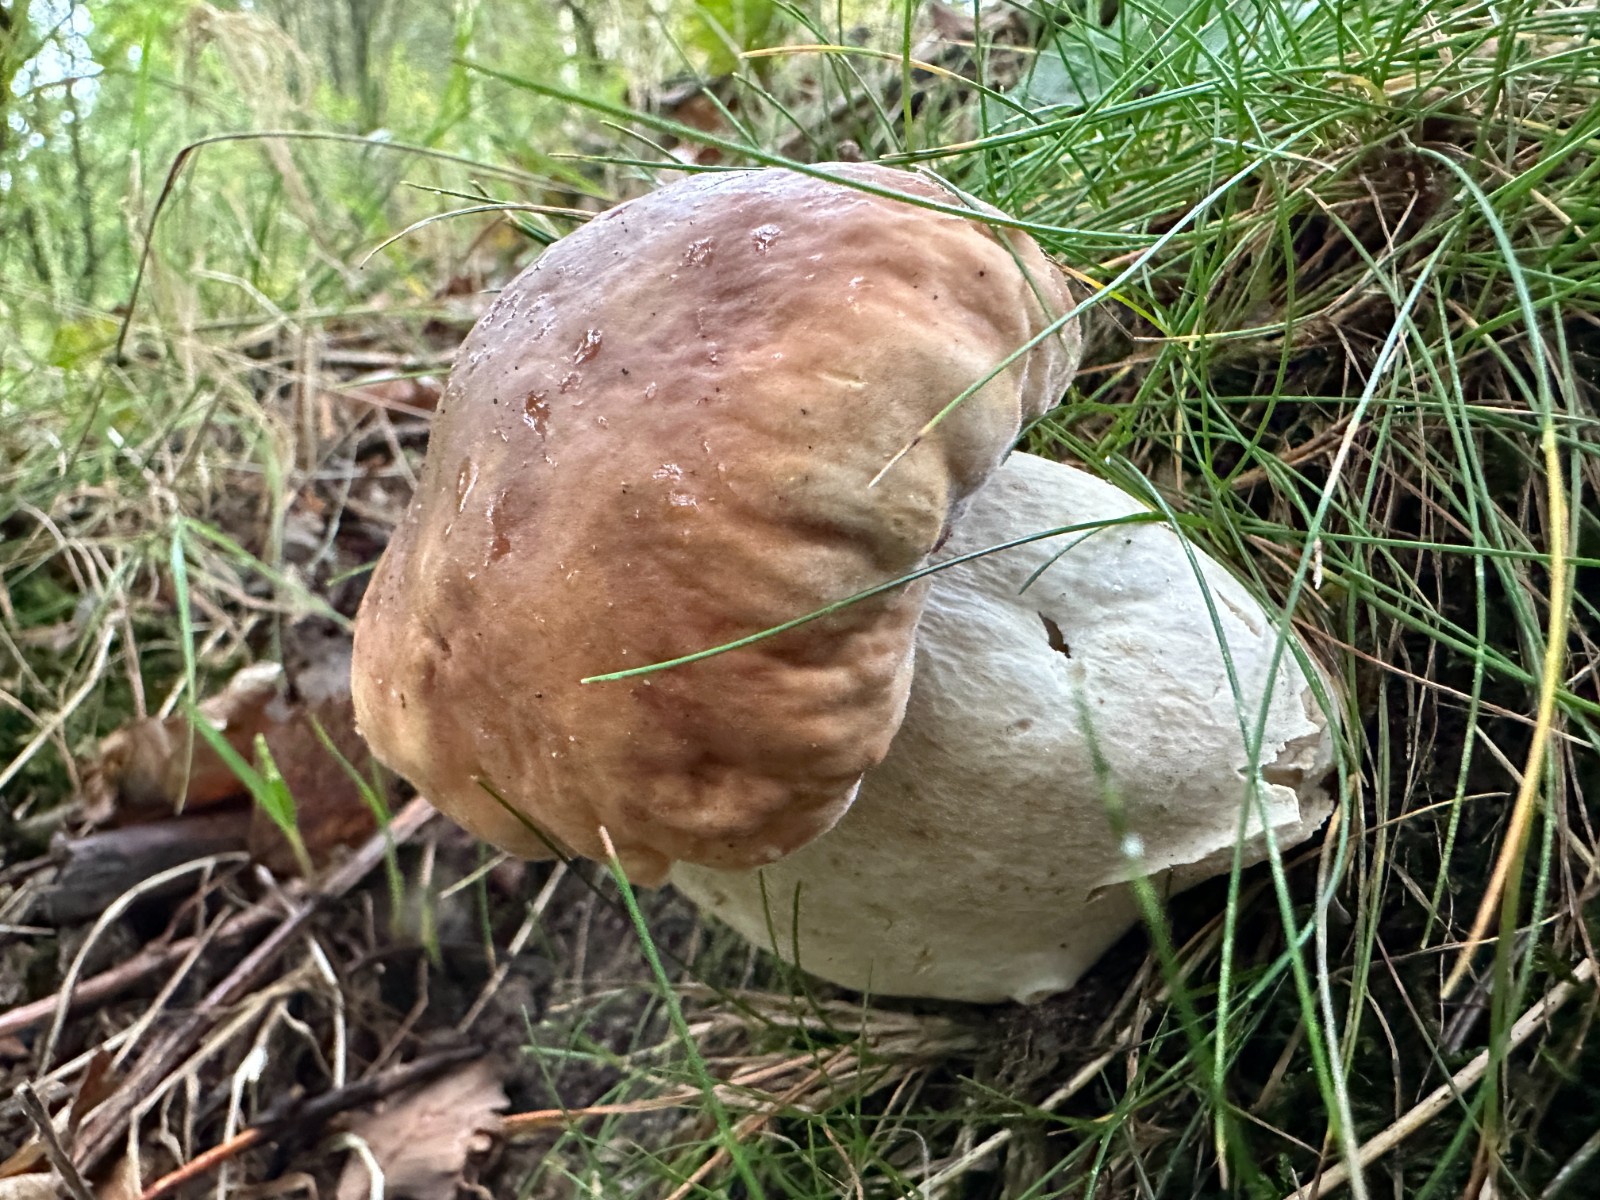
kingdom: Fungi
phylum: Basidiomycota
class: Agaricomycetes
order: Boletales
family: Boletaceae
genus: Boletus
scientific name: Boletus edulis
